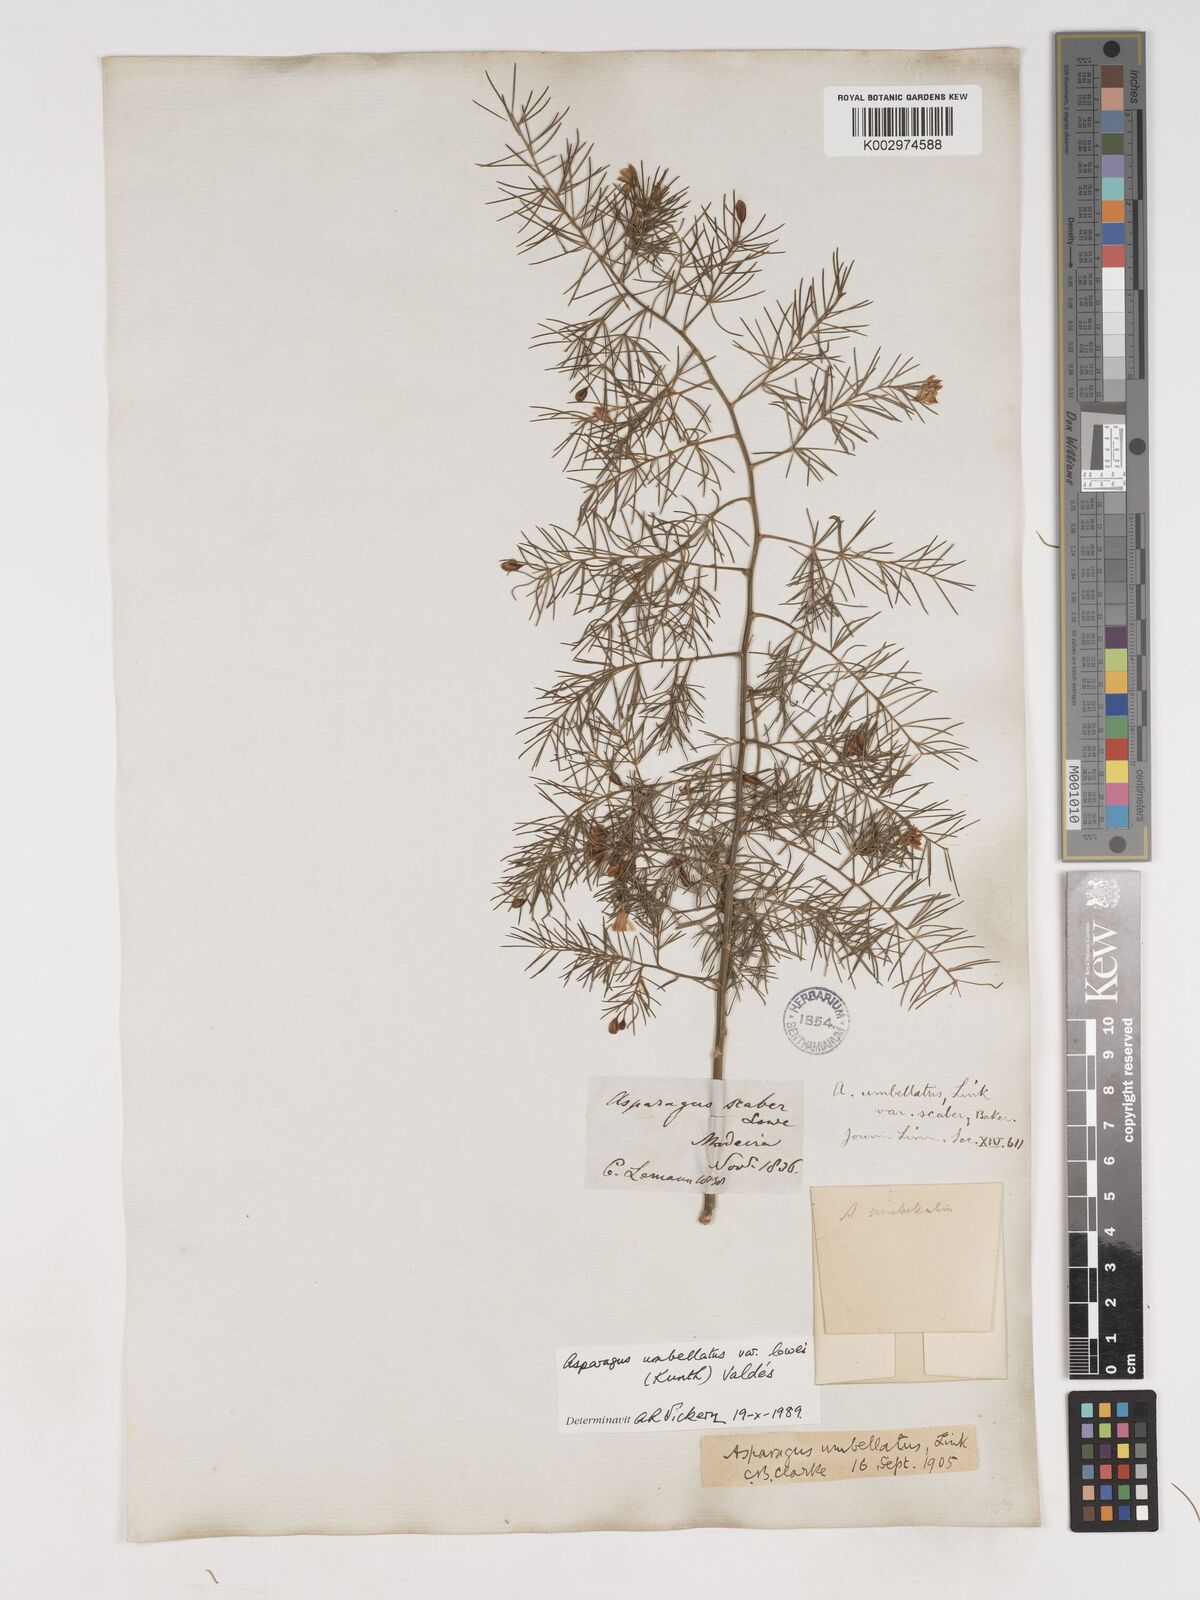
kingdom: Plantae
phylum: Tracheophyta
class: Liliopsida
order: Asparagales
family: Asparagaceae
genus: Asparagus
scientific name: Asparagus umbellatus
